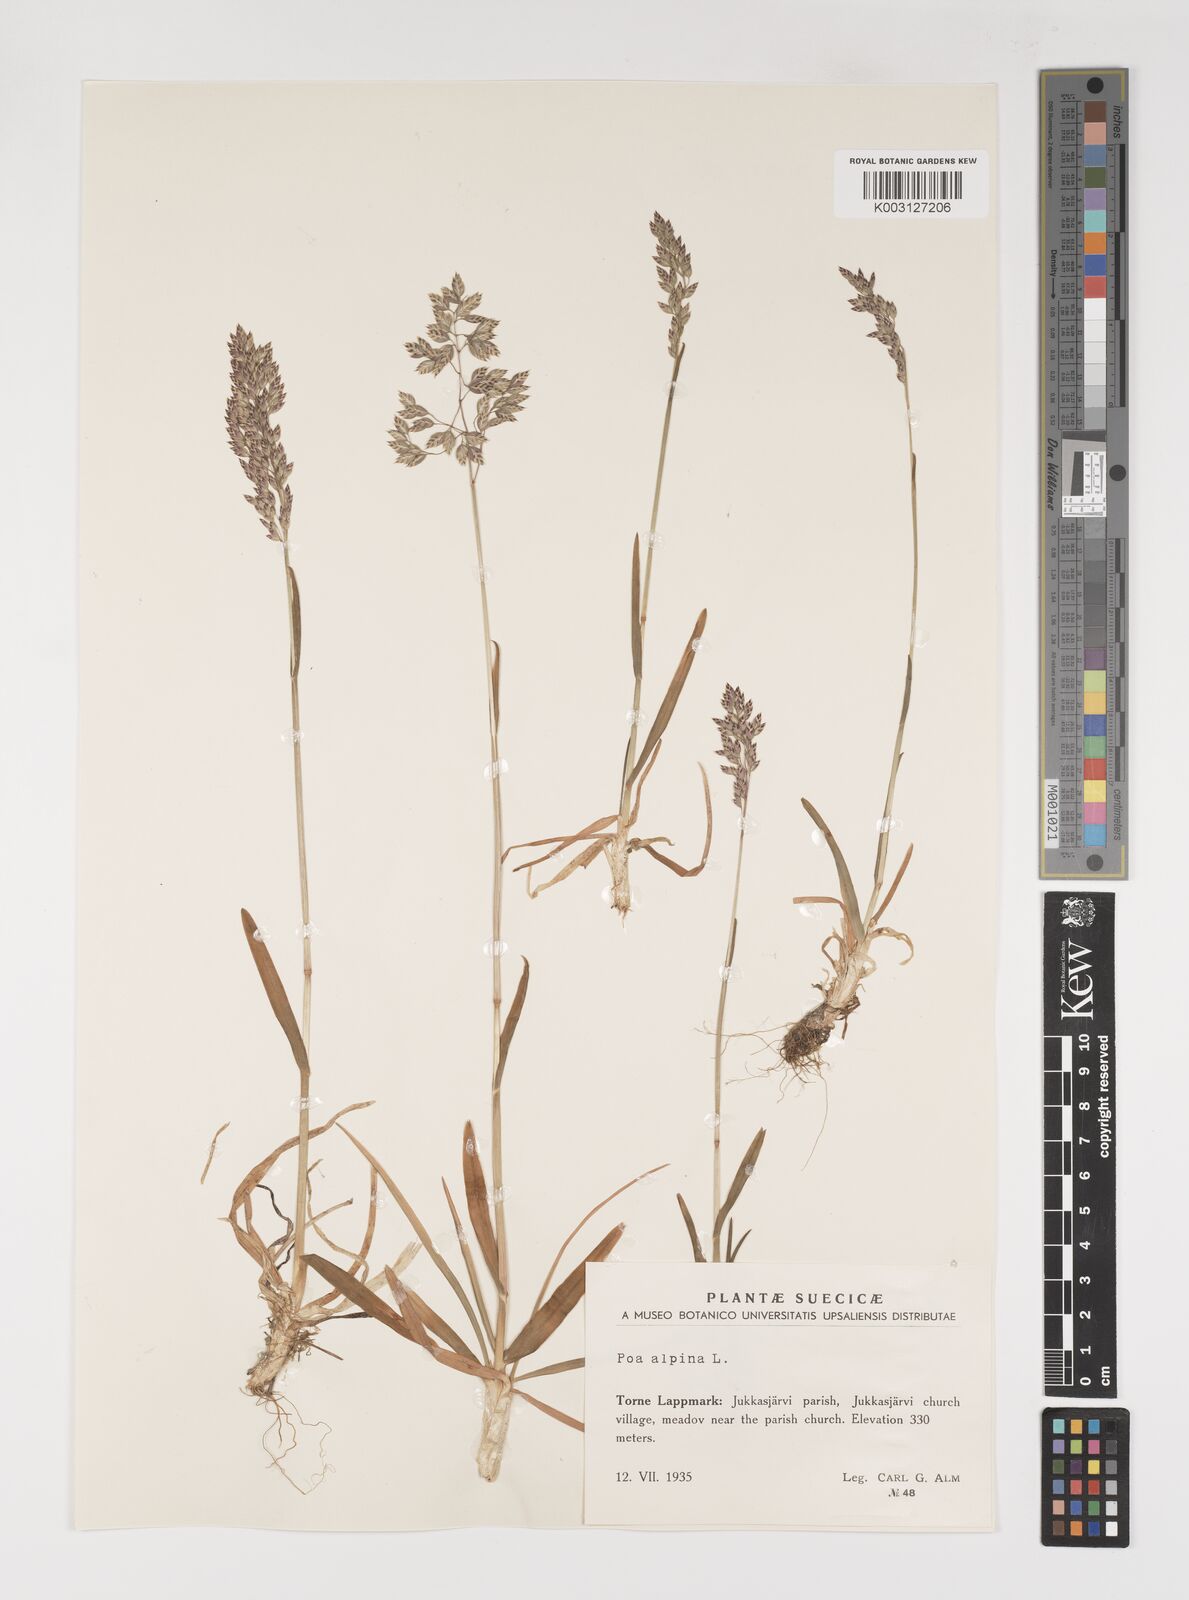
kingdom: Plantae
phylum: Tracheophyta
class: Liliopsida
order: Poales
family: Poaceae
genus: Poa
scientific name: Poa alpina
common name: Alpine bluegrass
